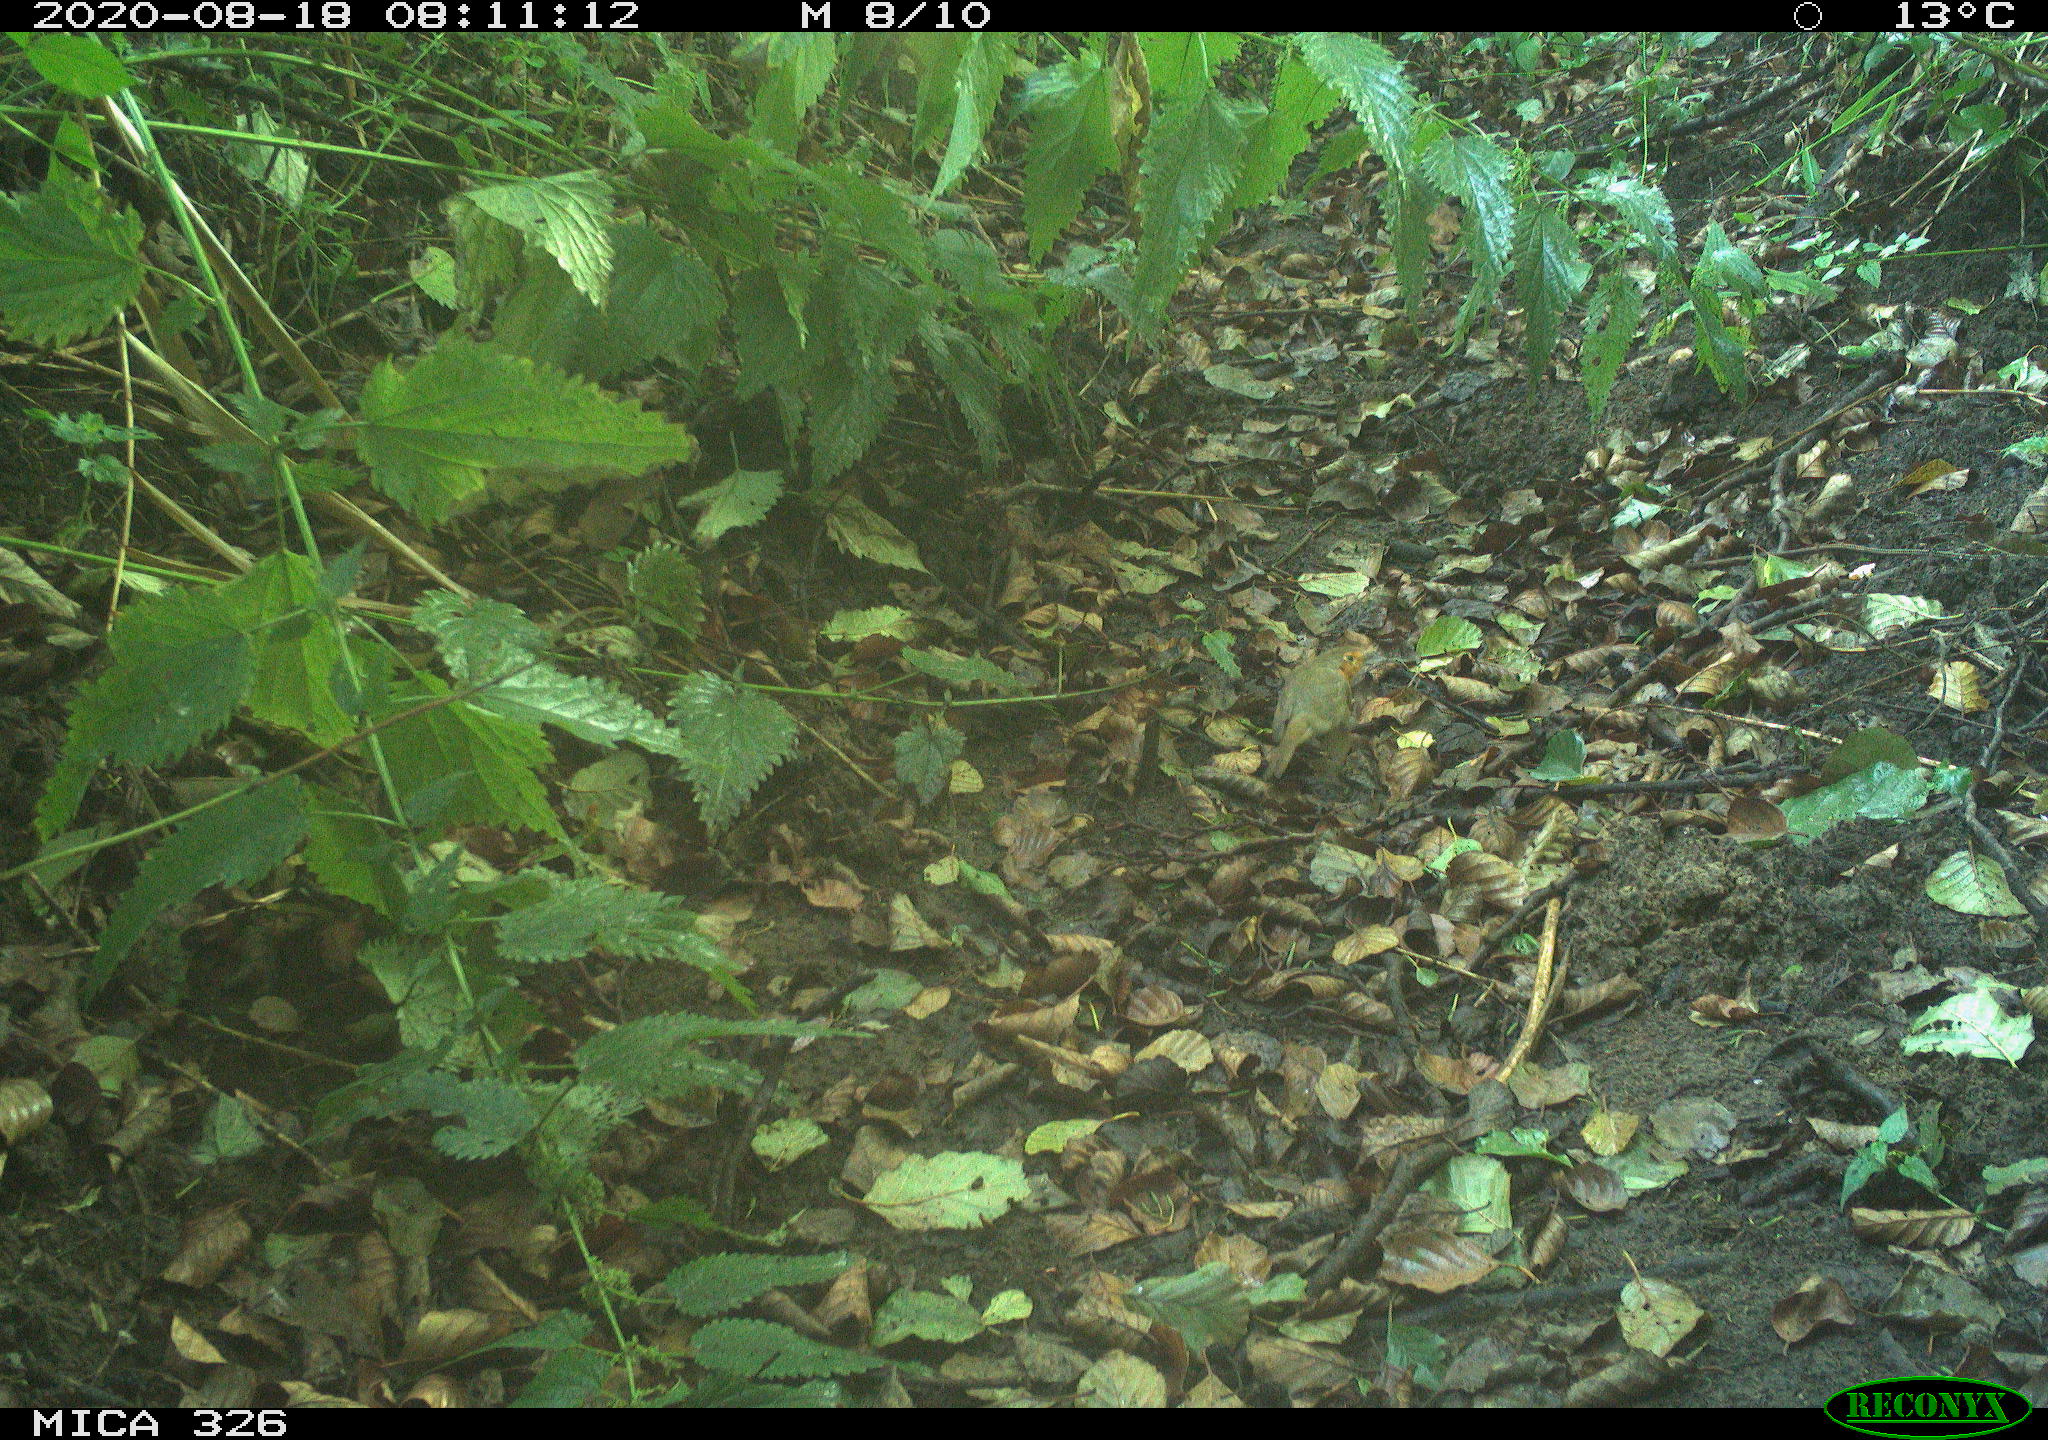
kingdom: Animalia
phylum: Chordata
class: Aves
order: Passeriformes
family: Muscicapidae
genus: Erithacus
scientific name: Erithacus rubecula
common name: European robin
